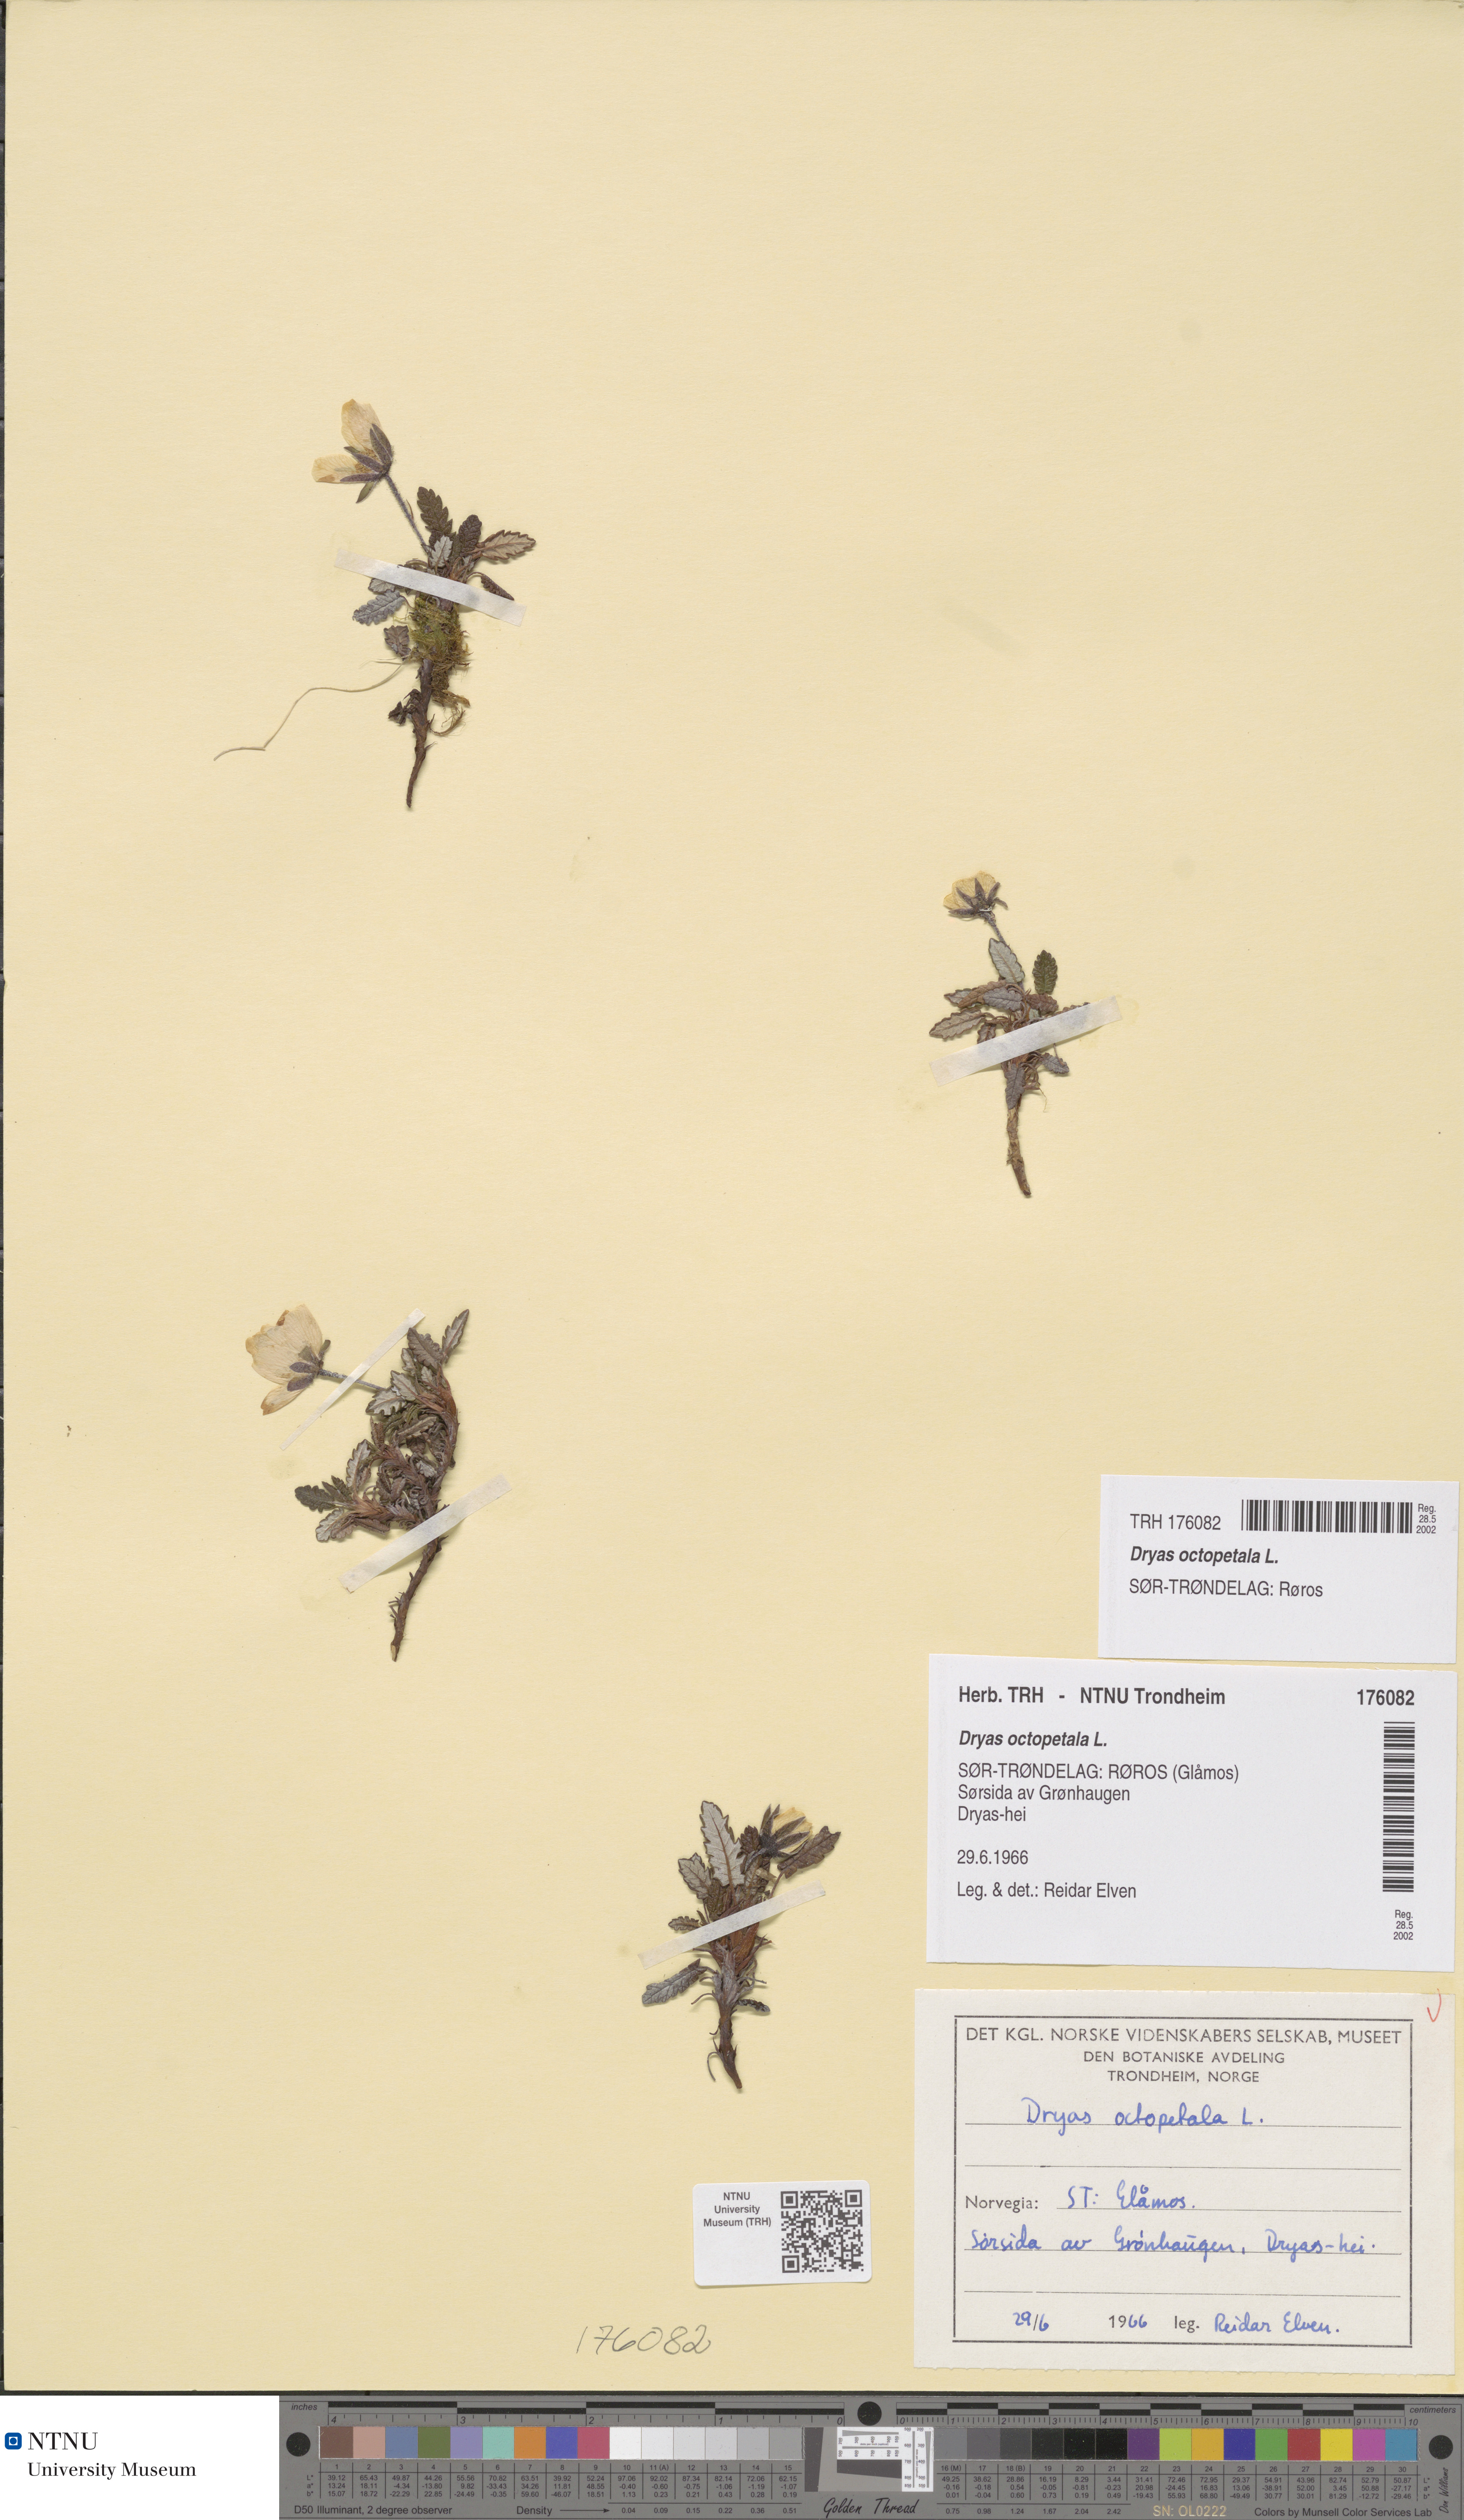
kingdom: Plantae
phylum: Tracheophyta
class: Magnoliopsida
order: Rosales
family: Rosaceae
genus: Dryas
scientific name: Dryas octopetala
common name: Eight-petal mountain-avens
